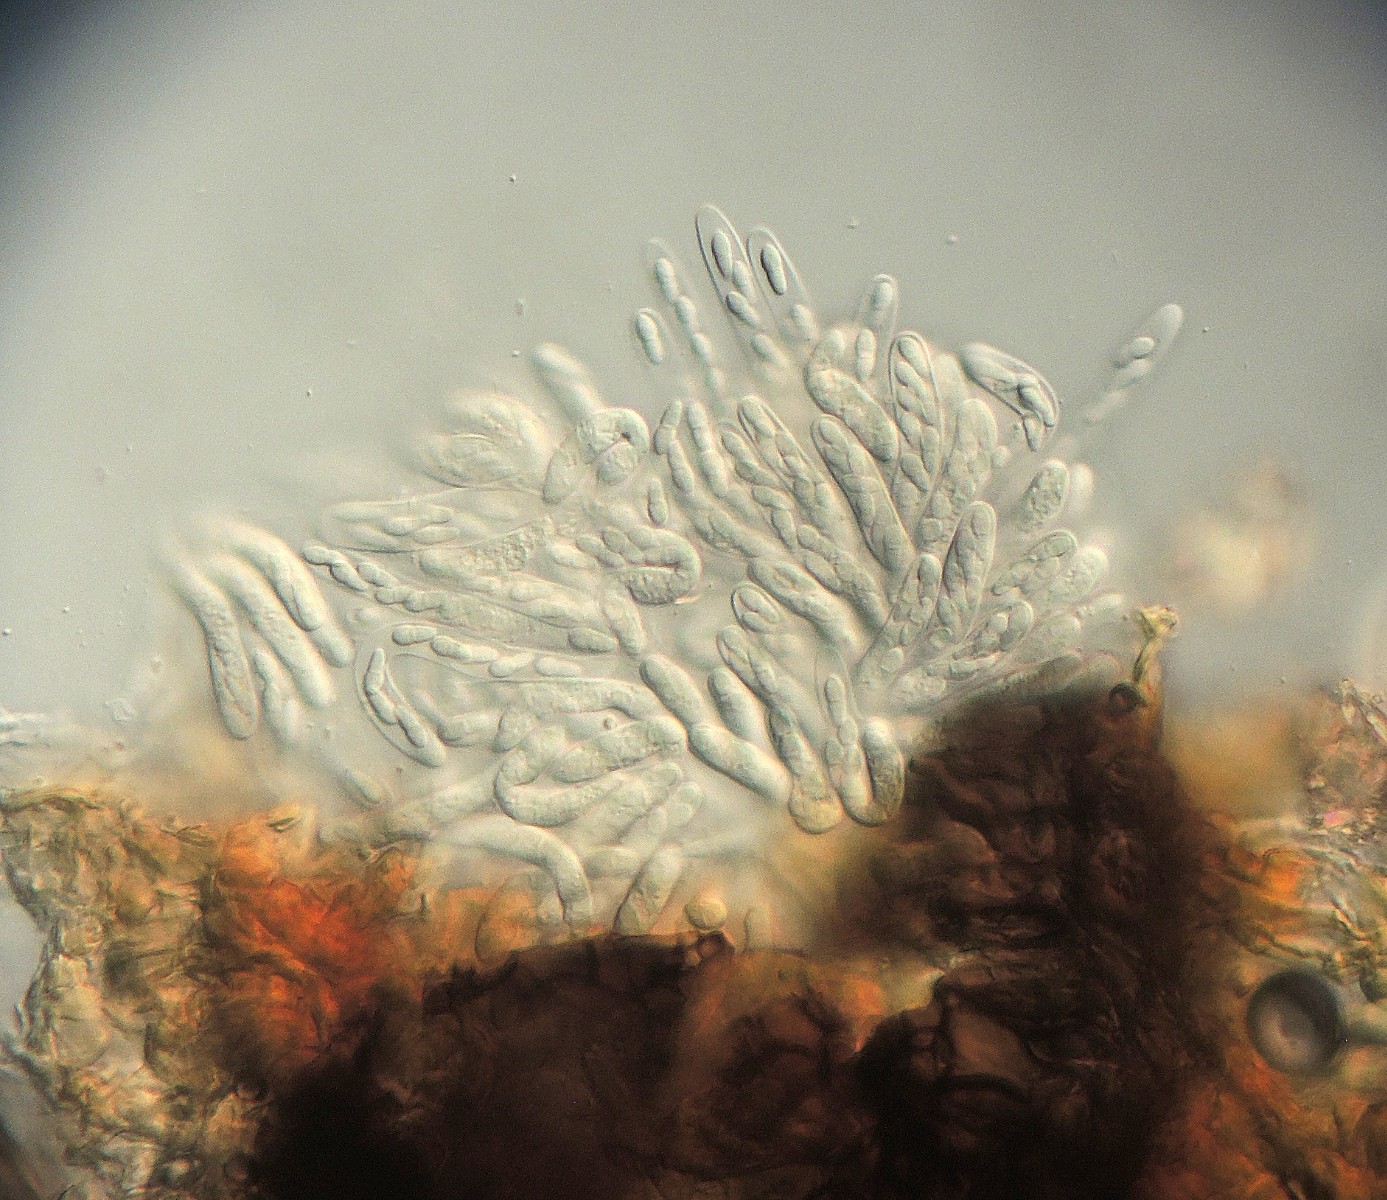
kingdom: Fungi
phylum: Ascomycota
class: Dothideomycetes
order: Mycosphaerellales
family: Mycosphaerellaceae
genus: Mycosphaerella
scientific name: Mycosphaerella punctiformis
